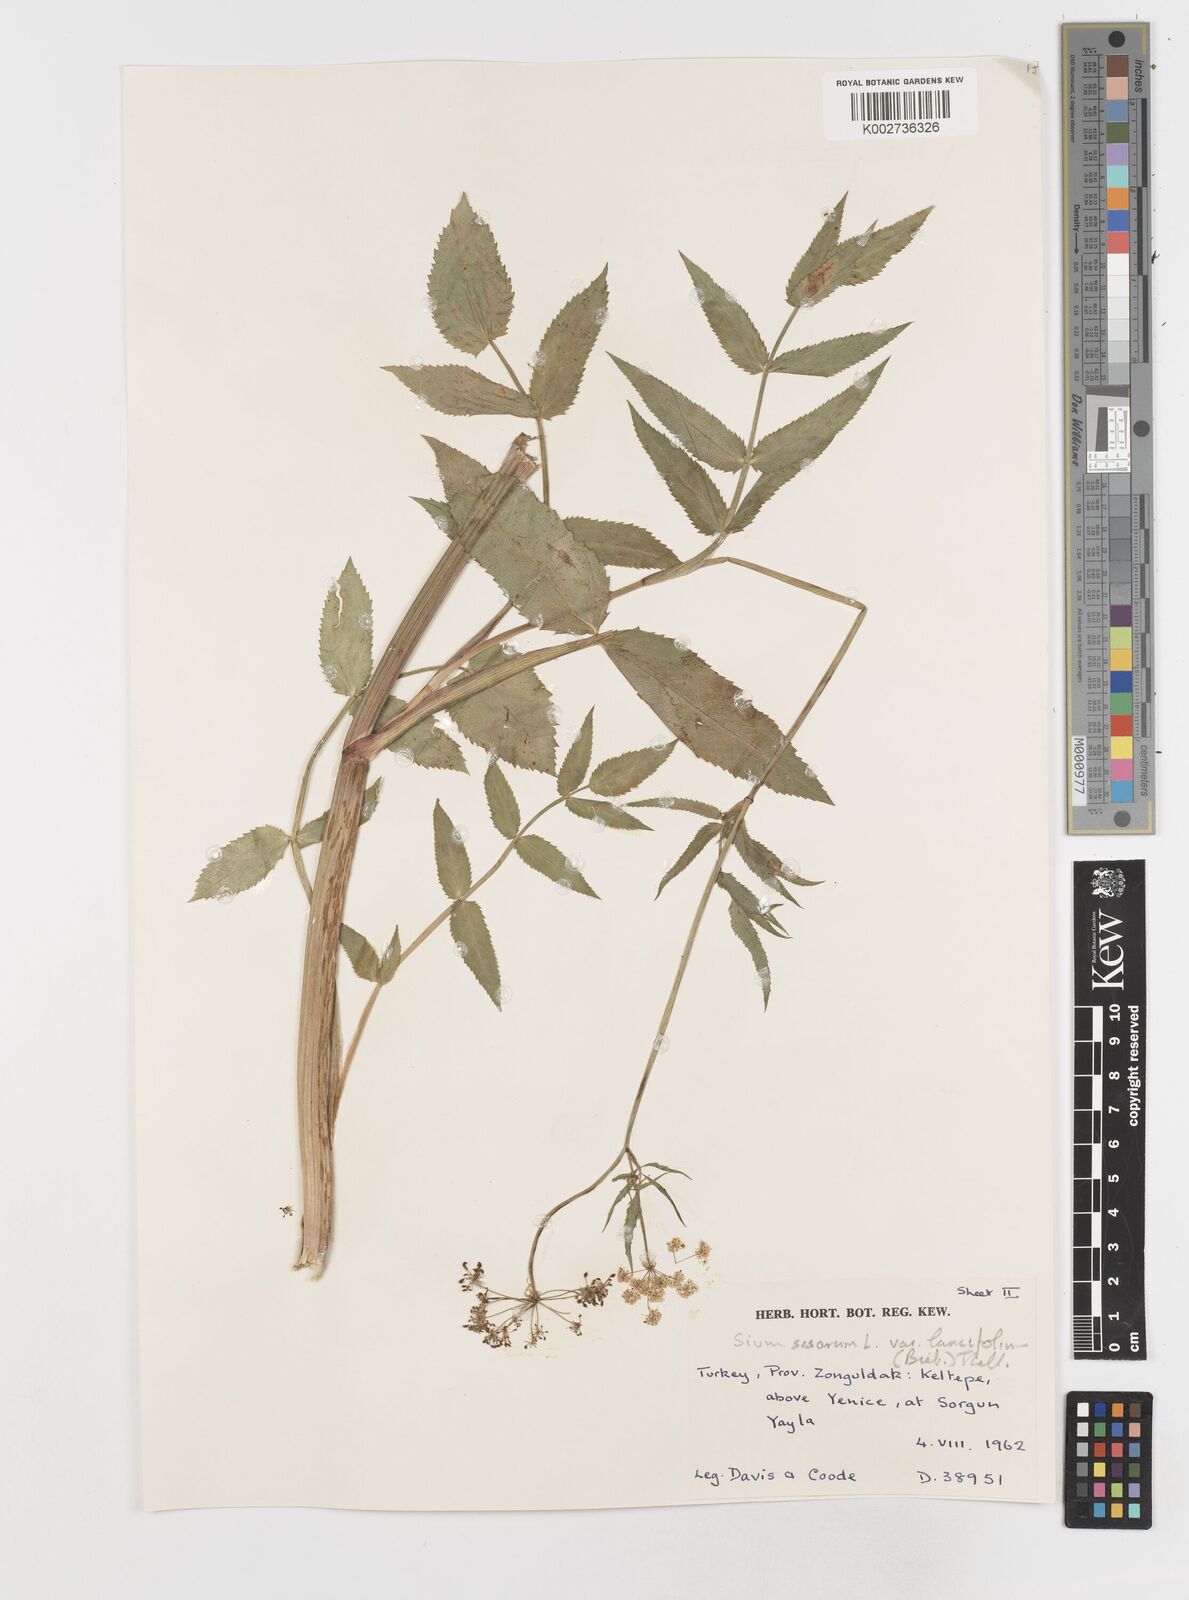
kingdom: Plantae
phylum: Tracheophyta
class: Magnoliopsida
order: Apiales
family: Apiaceae
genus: Sium
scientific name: Sium sisarum
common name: Skirret
